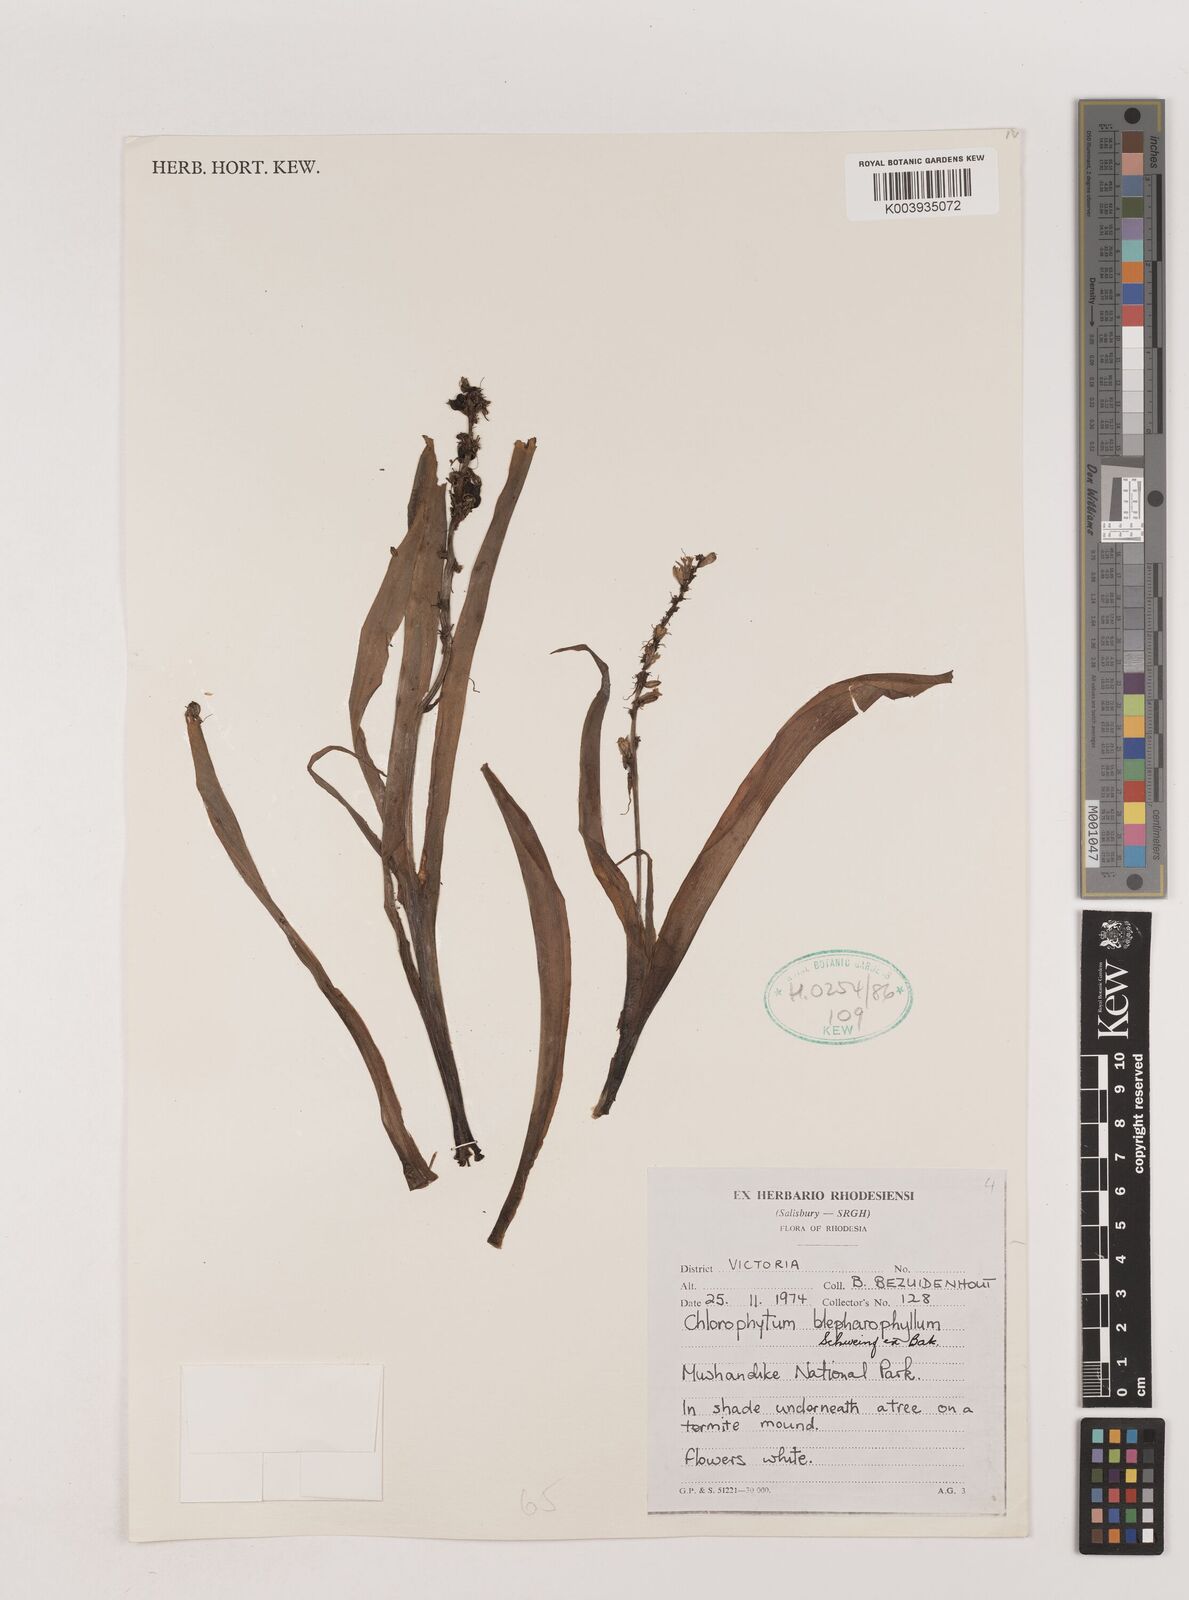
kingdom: Plantae
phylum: Tracheophyta
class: Liliopsida
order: Asparagales
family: Asparagaceae
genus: Chlorophytum
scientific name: Chlorophytum blepharophyllum
